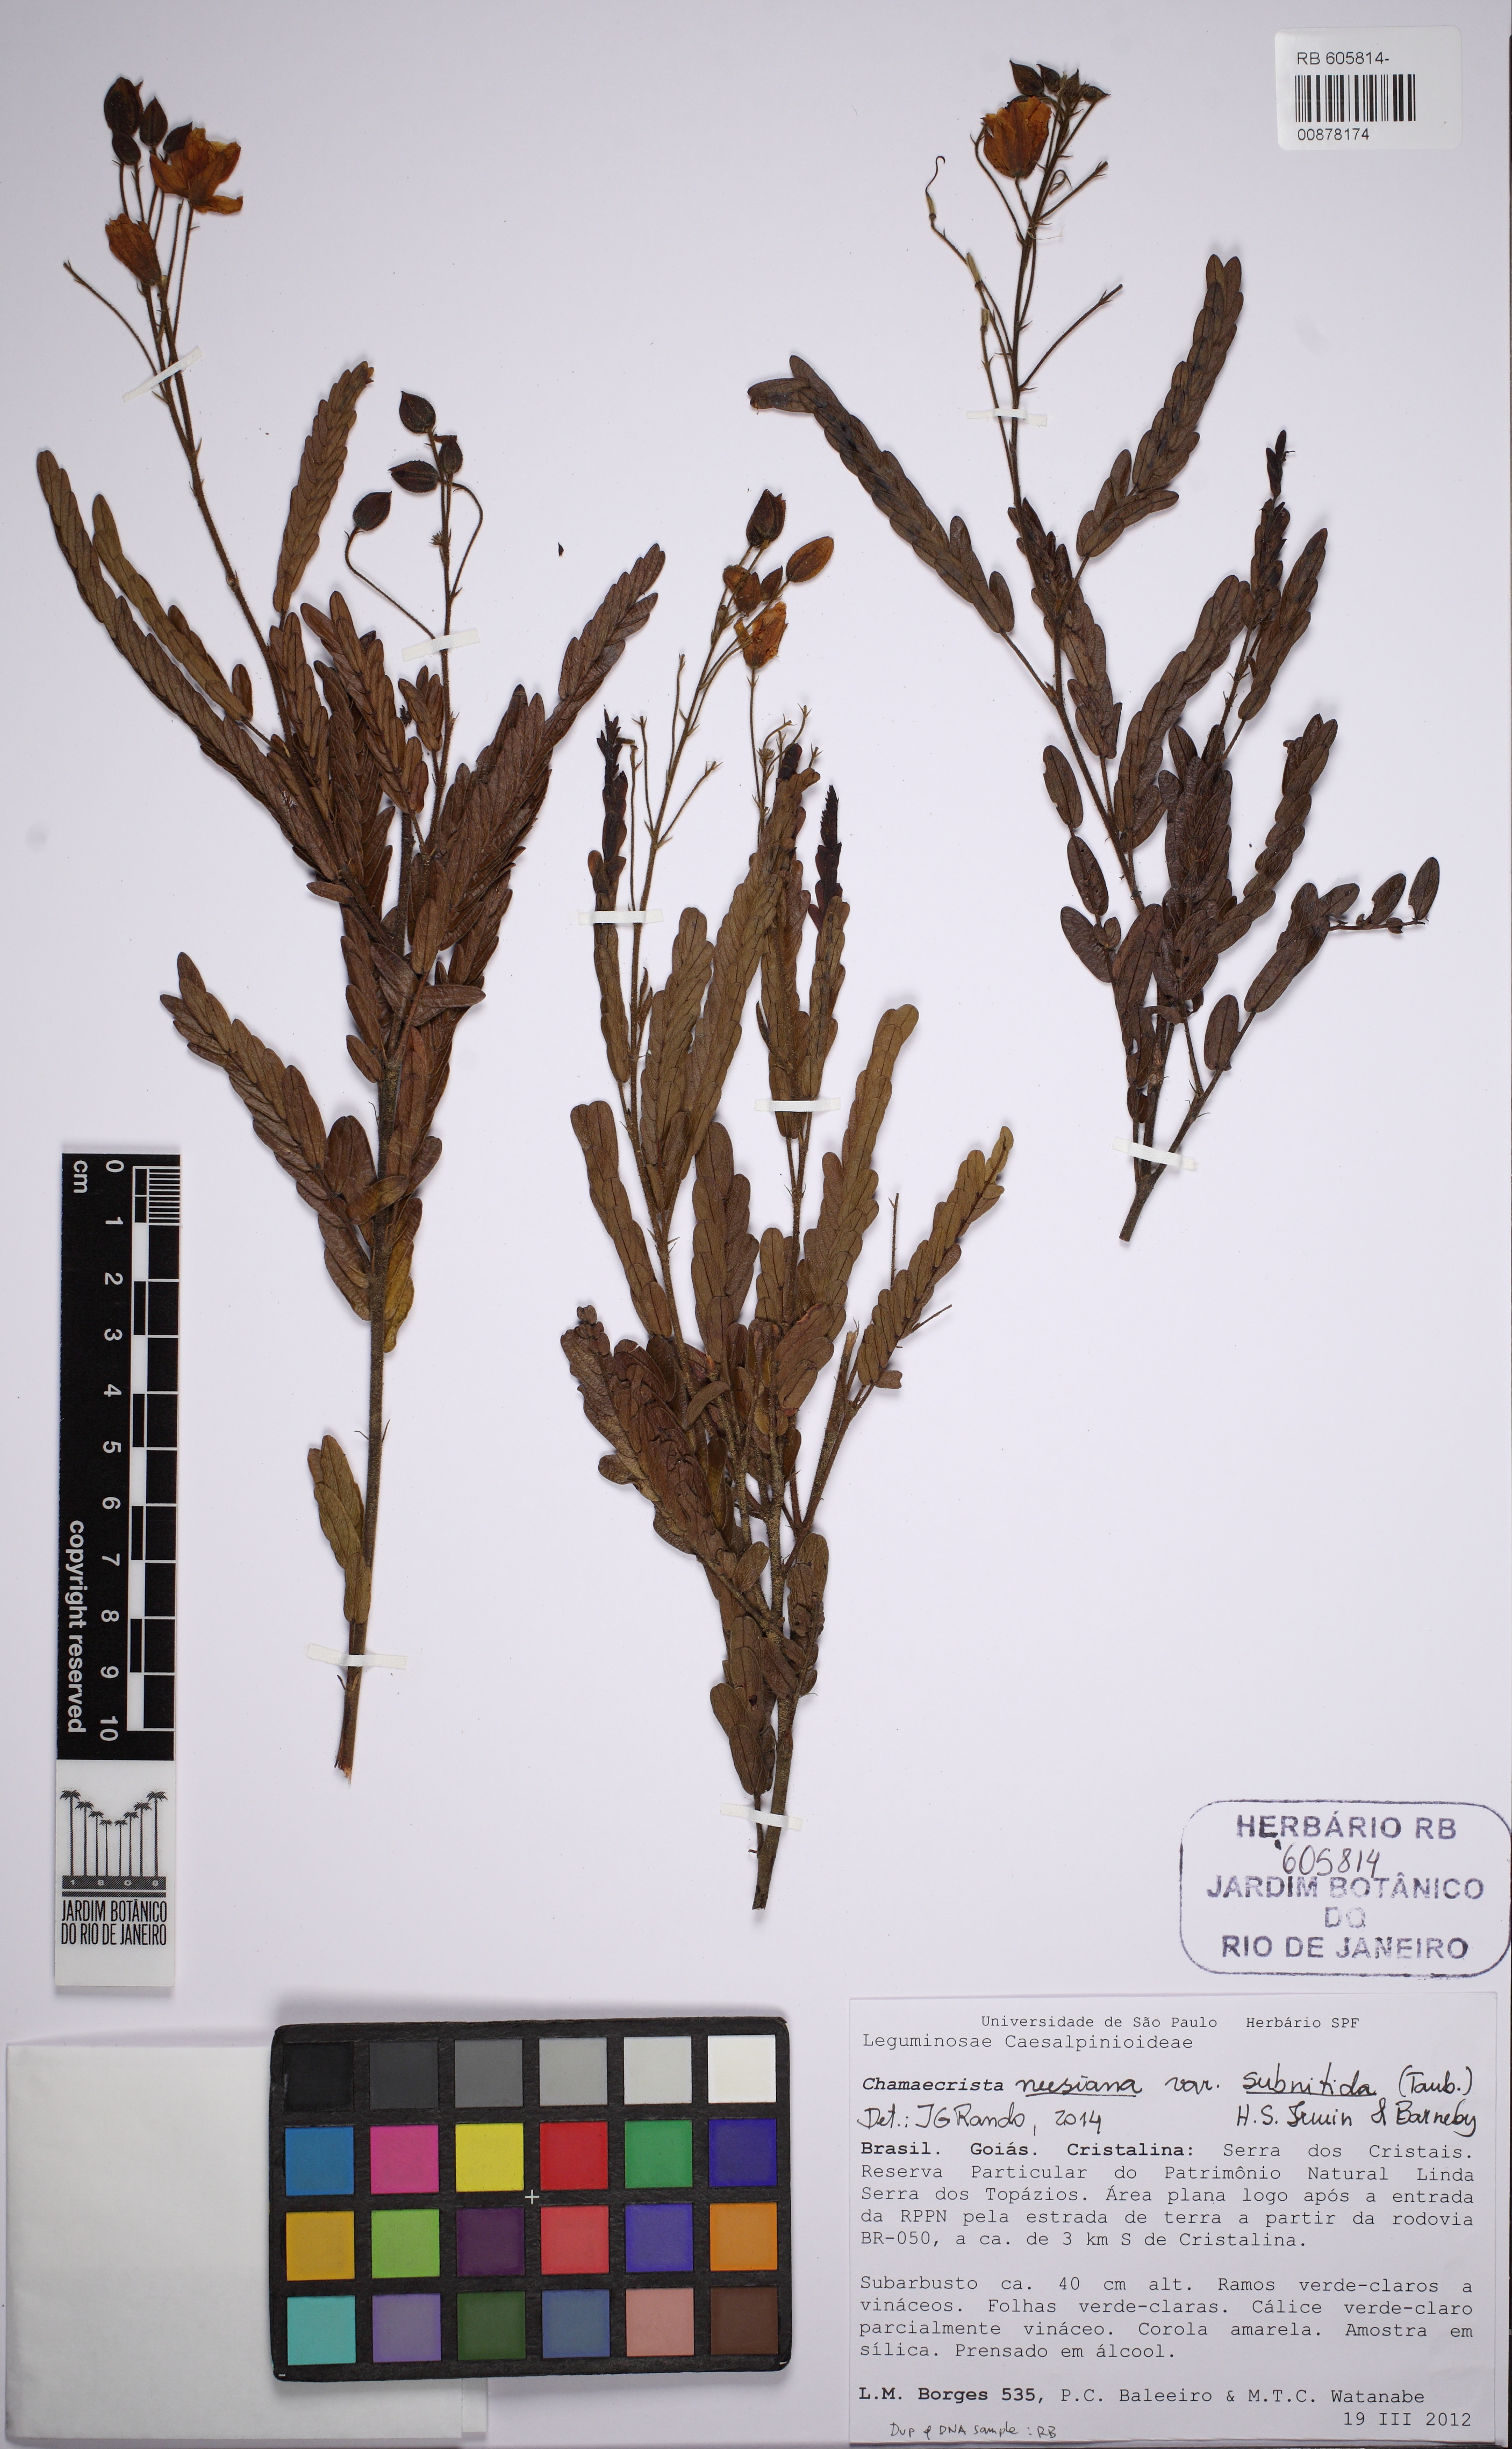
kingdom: Plantae
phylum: Tracheophyta
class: Magnoliopsida
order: Fabales
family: Fabaceae
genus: Chamaecrista
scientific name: Chamaecrista neesiana
